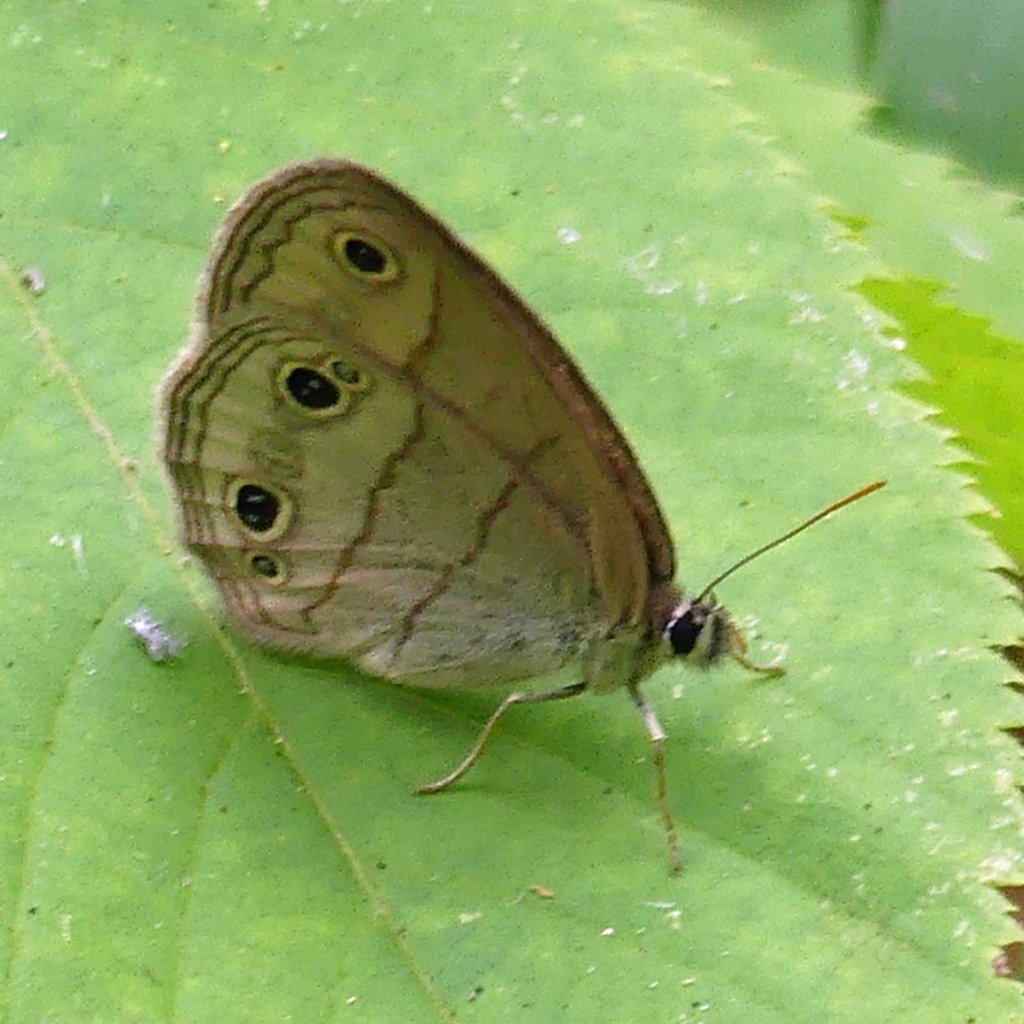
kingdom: Animalia
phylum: Arthropoda
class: Insecta
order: Lepidoptera
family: Nymphalidae
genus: Euptychia
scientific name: Euptychia cymela
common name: Little Wood Satyr
